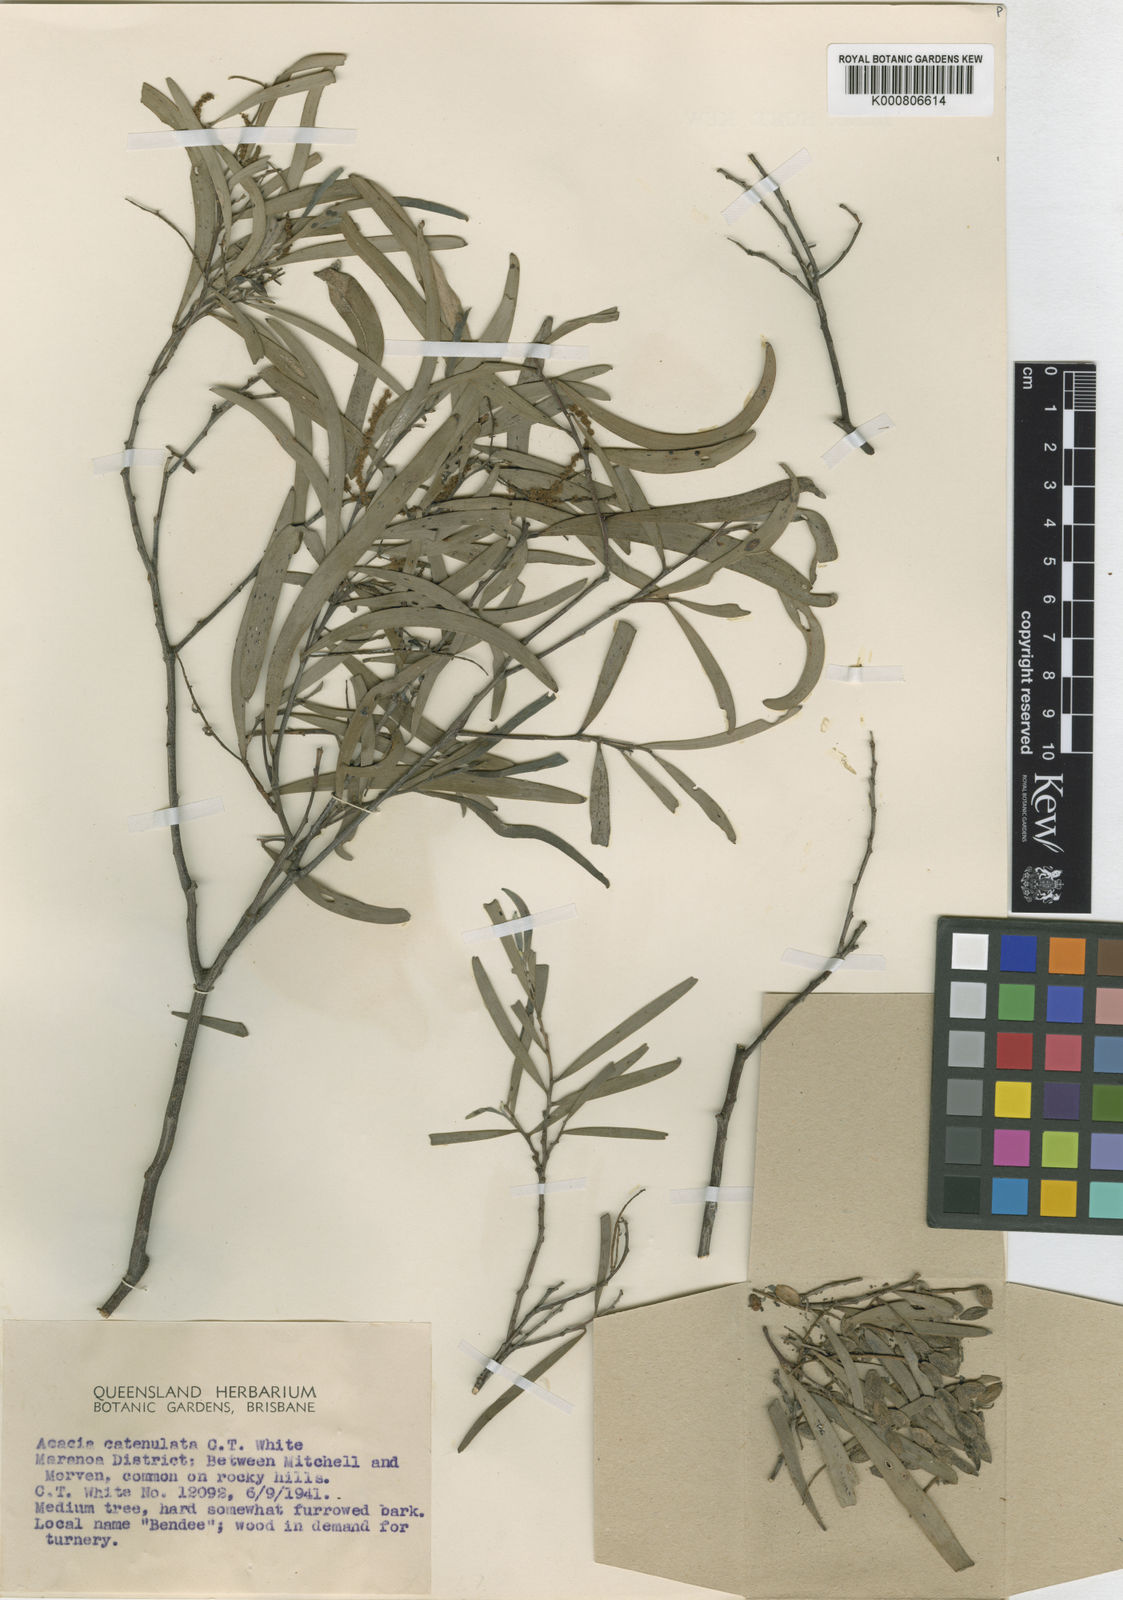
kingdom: Plantae
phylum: Tracheophyta
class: Magnoliopsida
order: Fabales
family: Fabaceae
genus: Acacia
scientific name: Acacia catenulata
